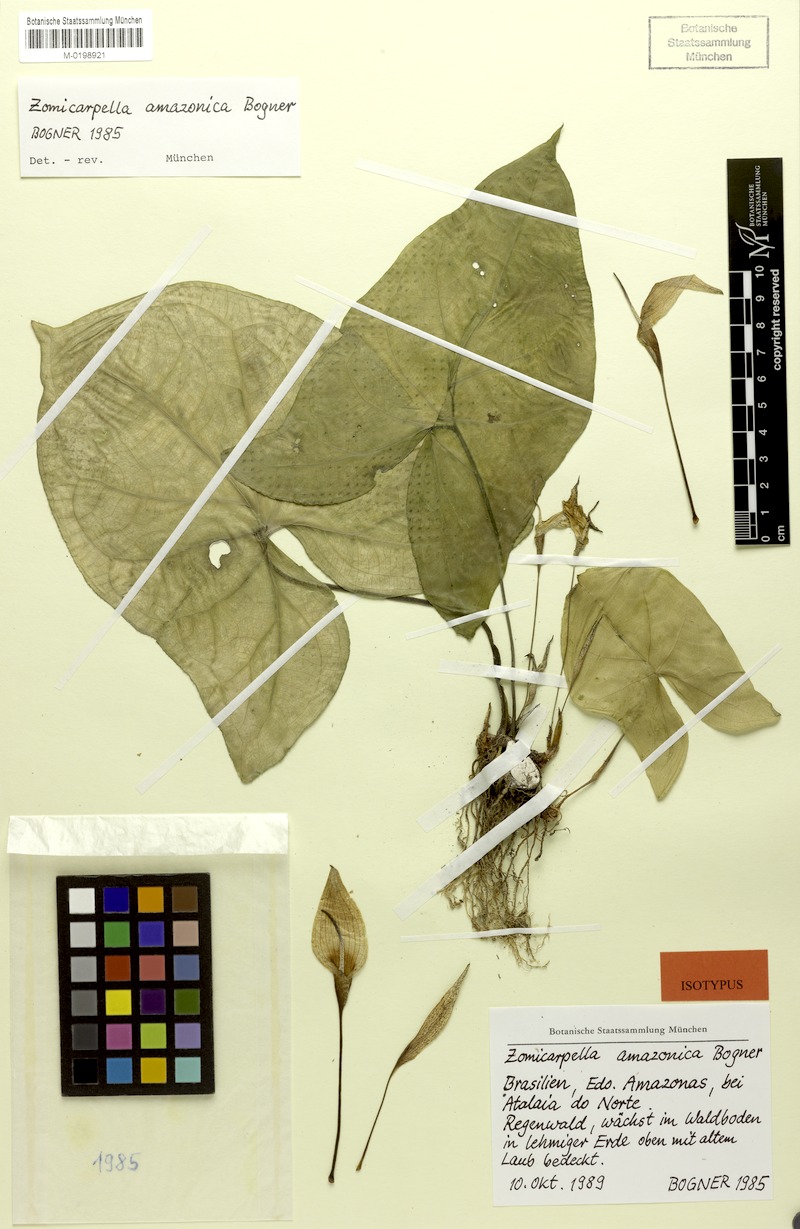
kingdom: Plantae
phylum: Tracheophyta
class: Liliopsida
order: Alismatales
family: Araceae
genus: Zomicarpella
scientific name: Zomicarpella amazonica
